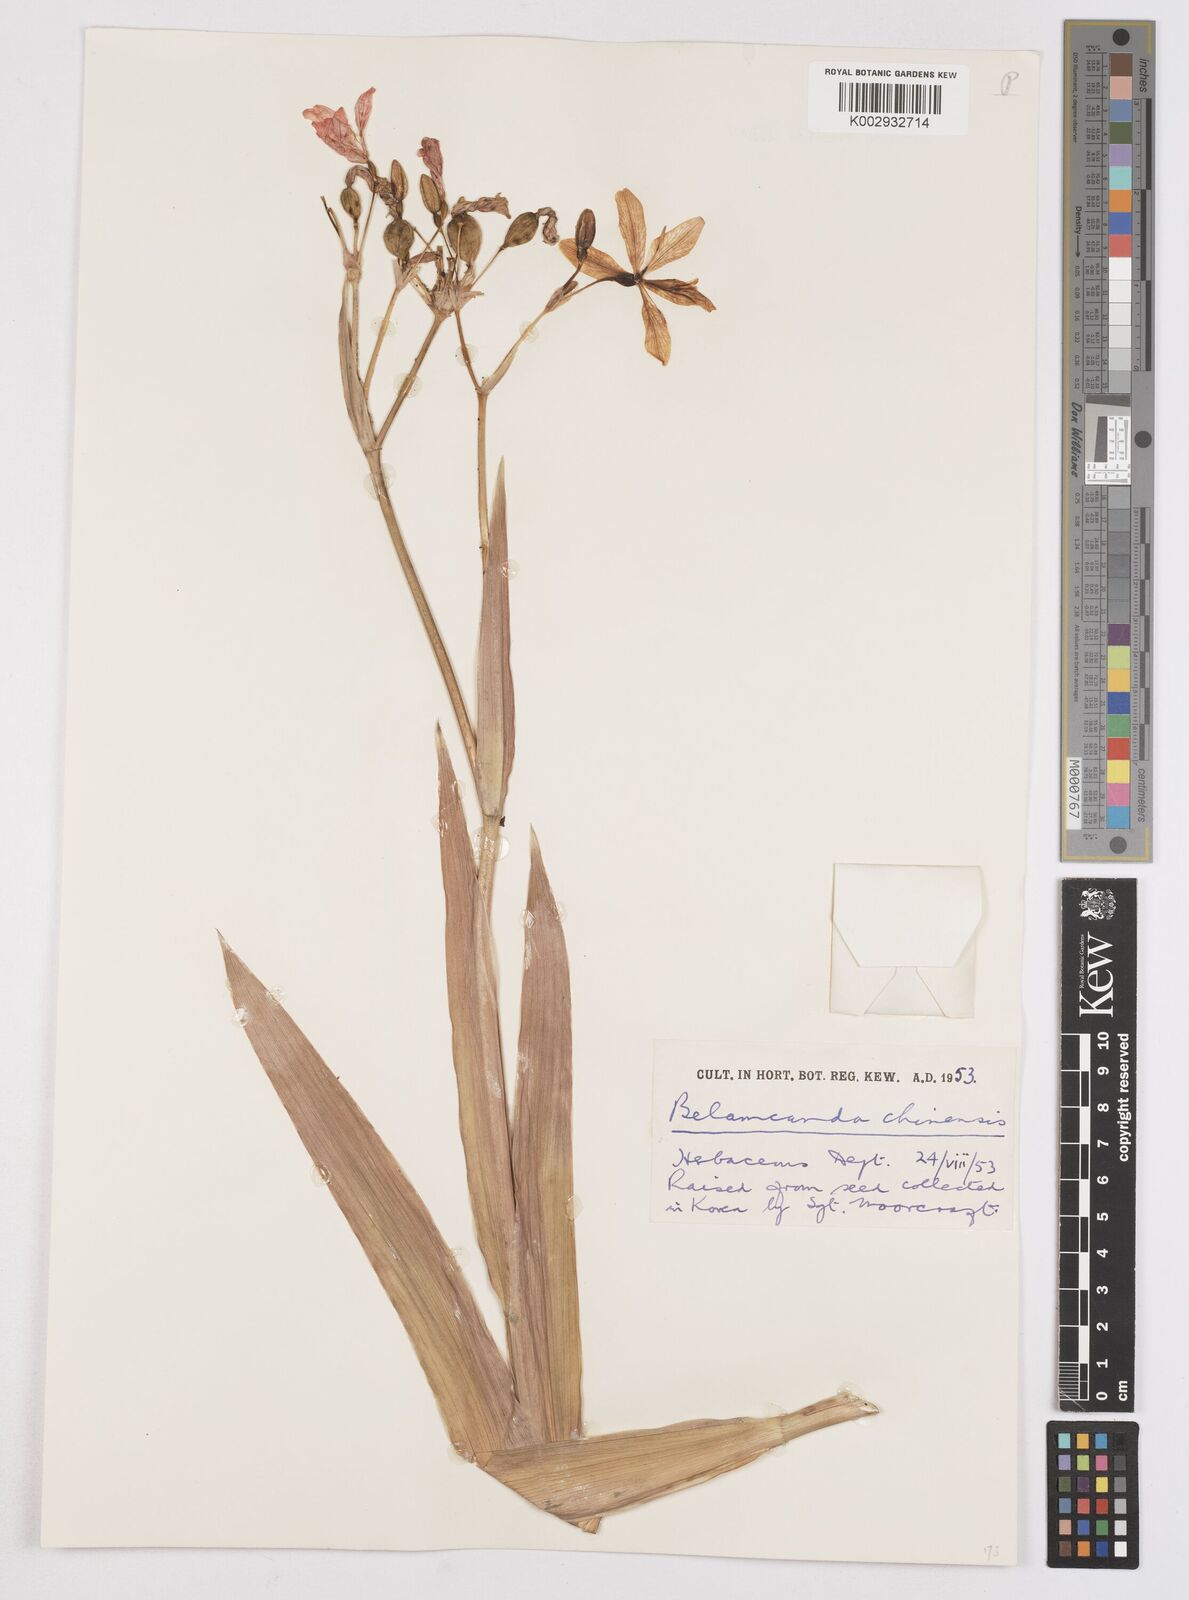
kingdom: Plantae
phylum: Tracheophyta
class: Liliopsida
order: Asparagales
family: Iridaceae
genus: Iris
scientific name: Iris
